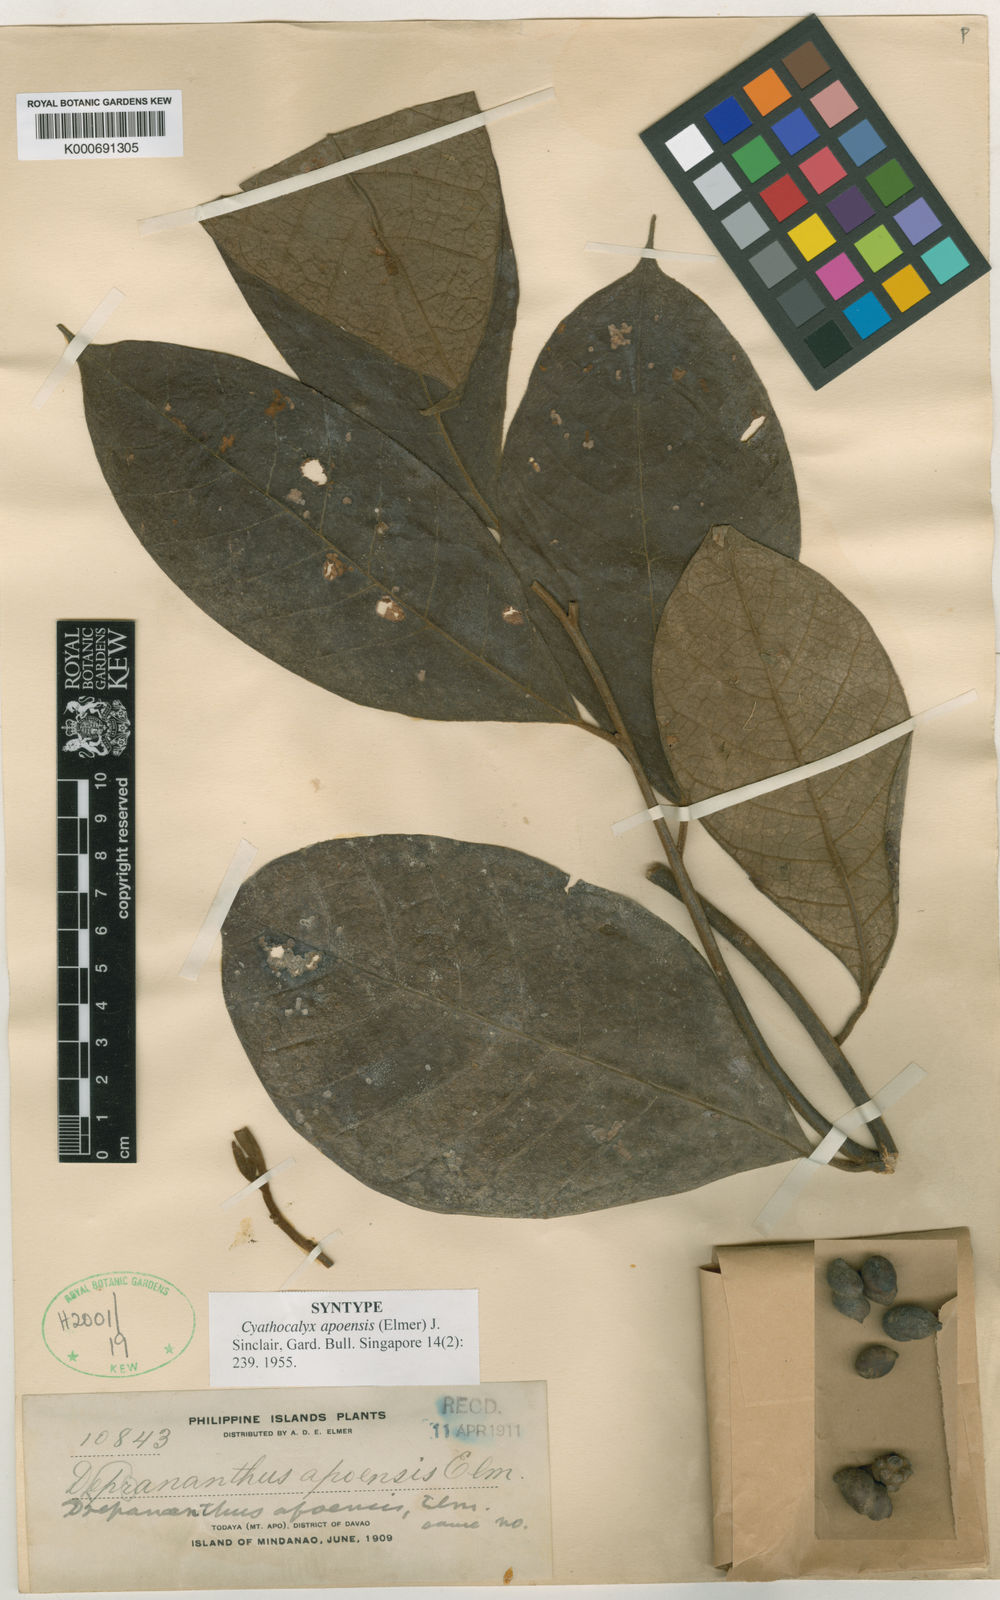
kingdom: Plantae
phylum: Tracheophyta
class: Magnoliopsida
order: Magnoliales
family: Annonaceae
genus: Drepananthus
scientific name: Drepananthus apoensis
